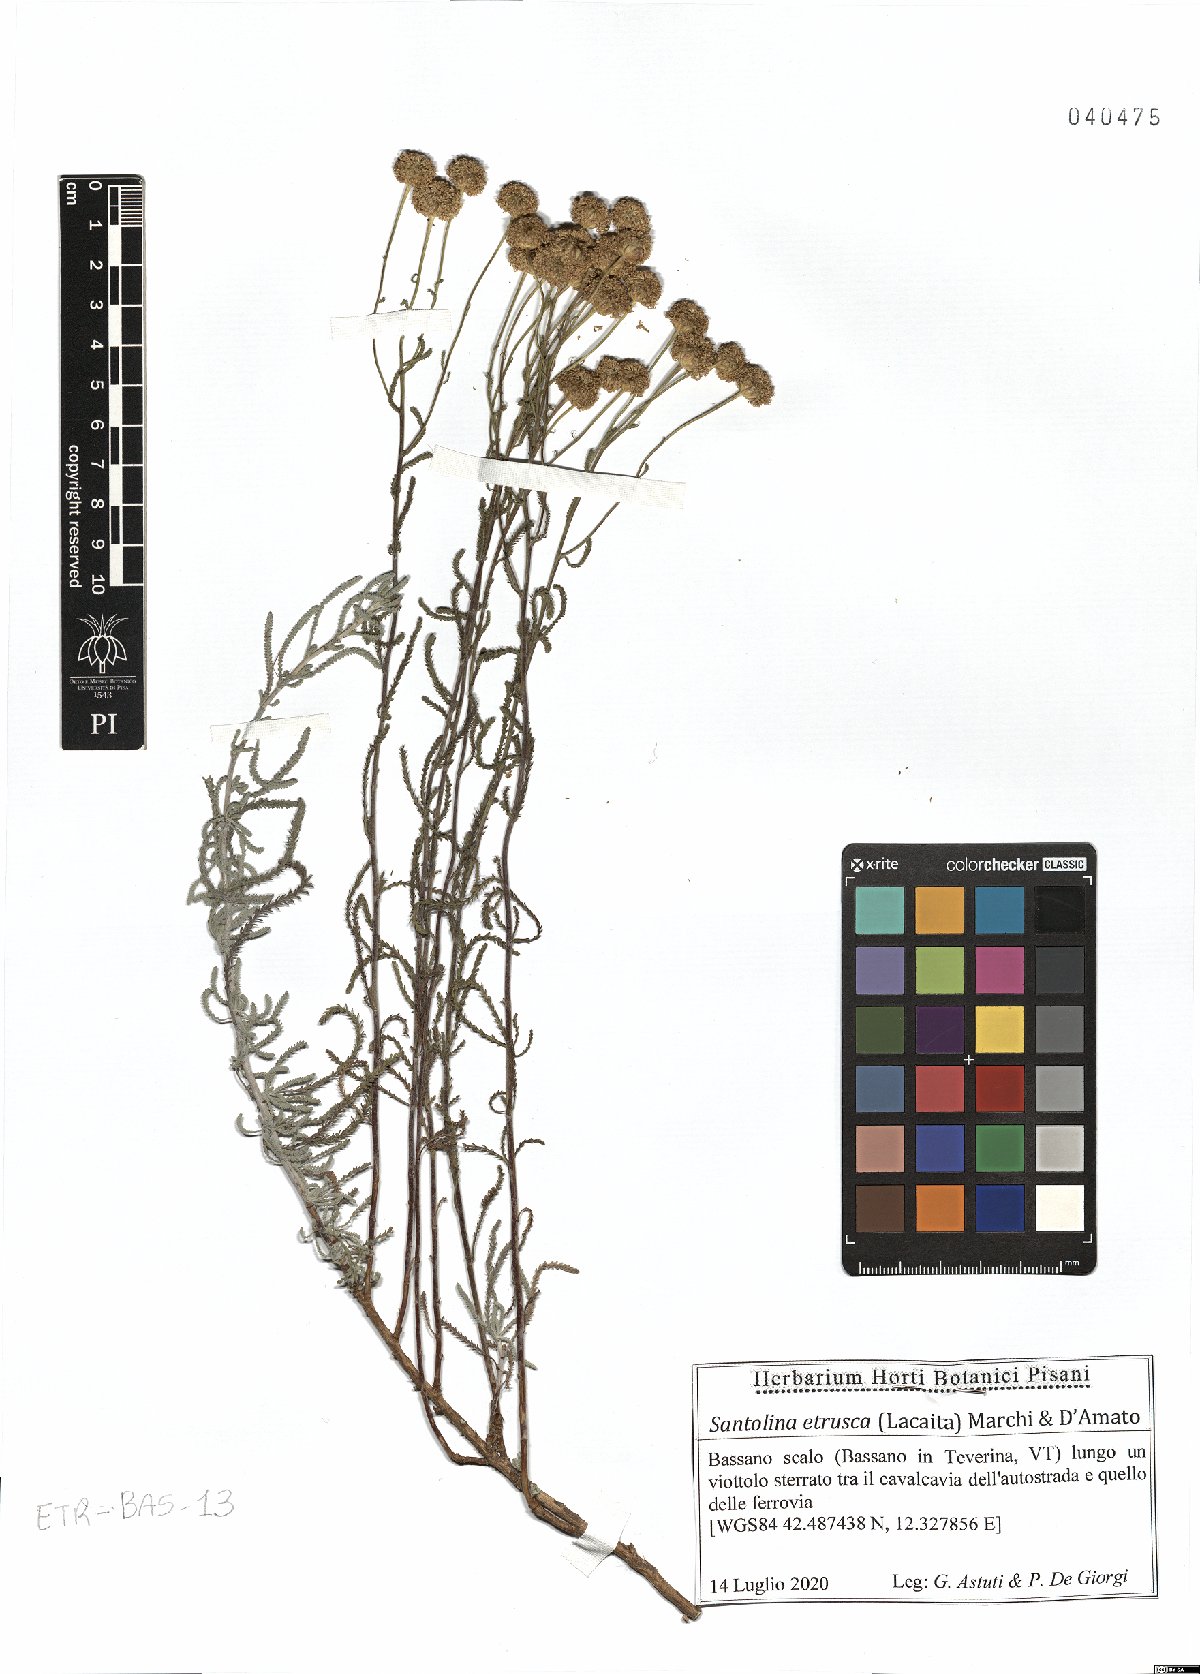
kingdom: Plantae
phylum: Tracheophyta
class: Magnoliopsida
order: Asterales
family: Asteraceae
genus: Santolina
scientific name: Santolina etrusca
